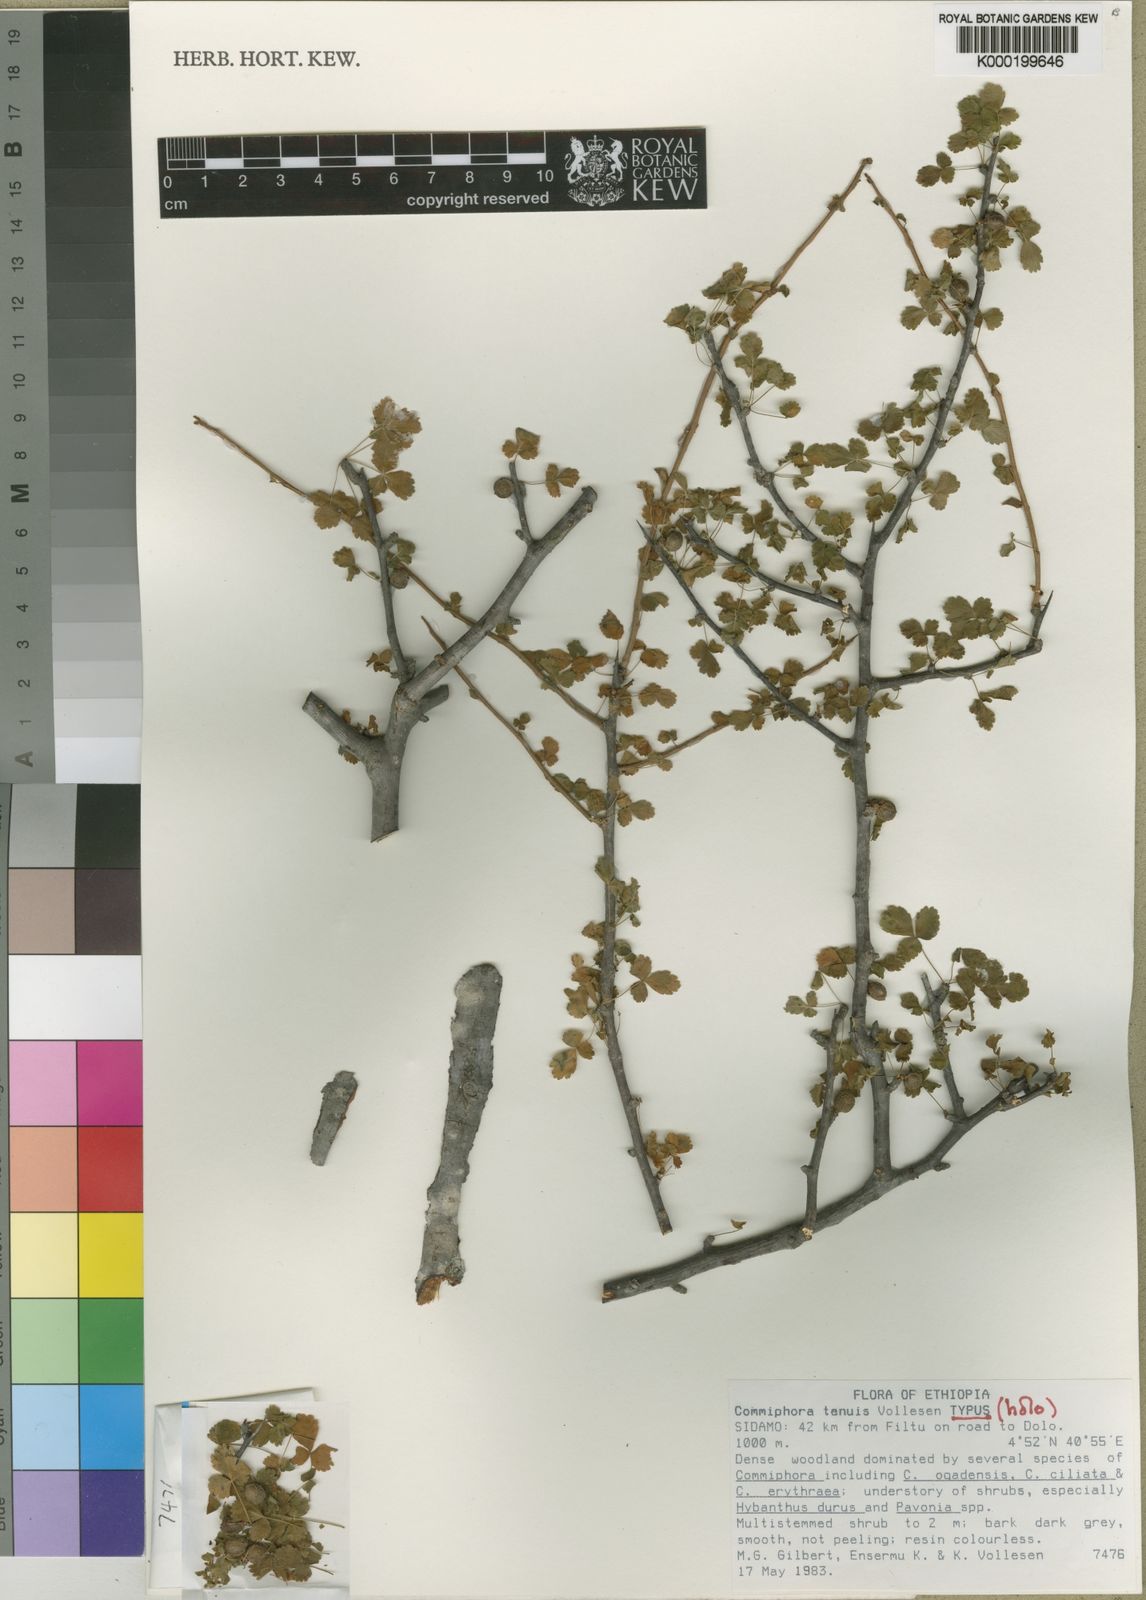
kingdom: Plantae
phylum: Tracheophyta
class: Magnoliopsida
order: Sapindales
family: Burseraceae
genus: Commiphora
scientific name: Commiphora gurreh
